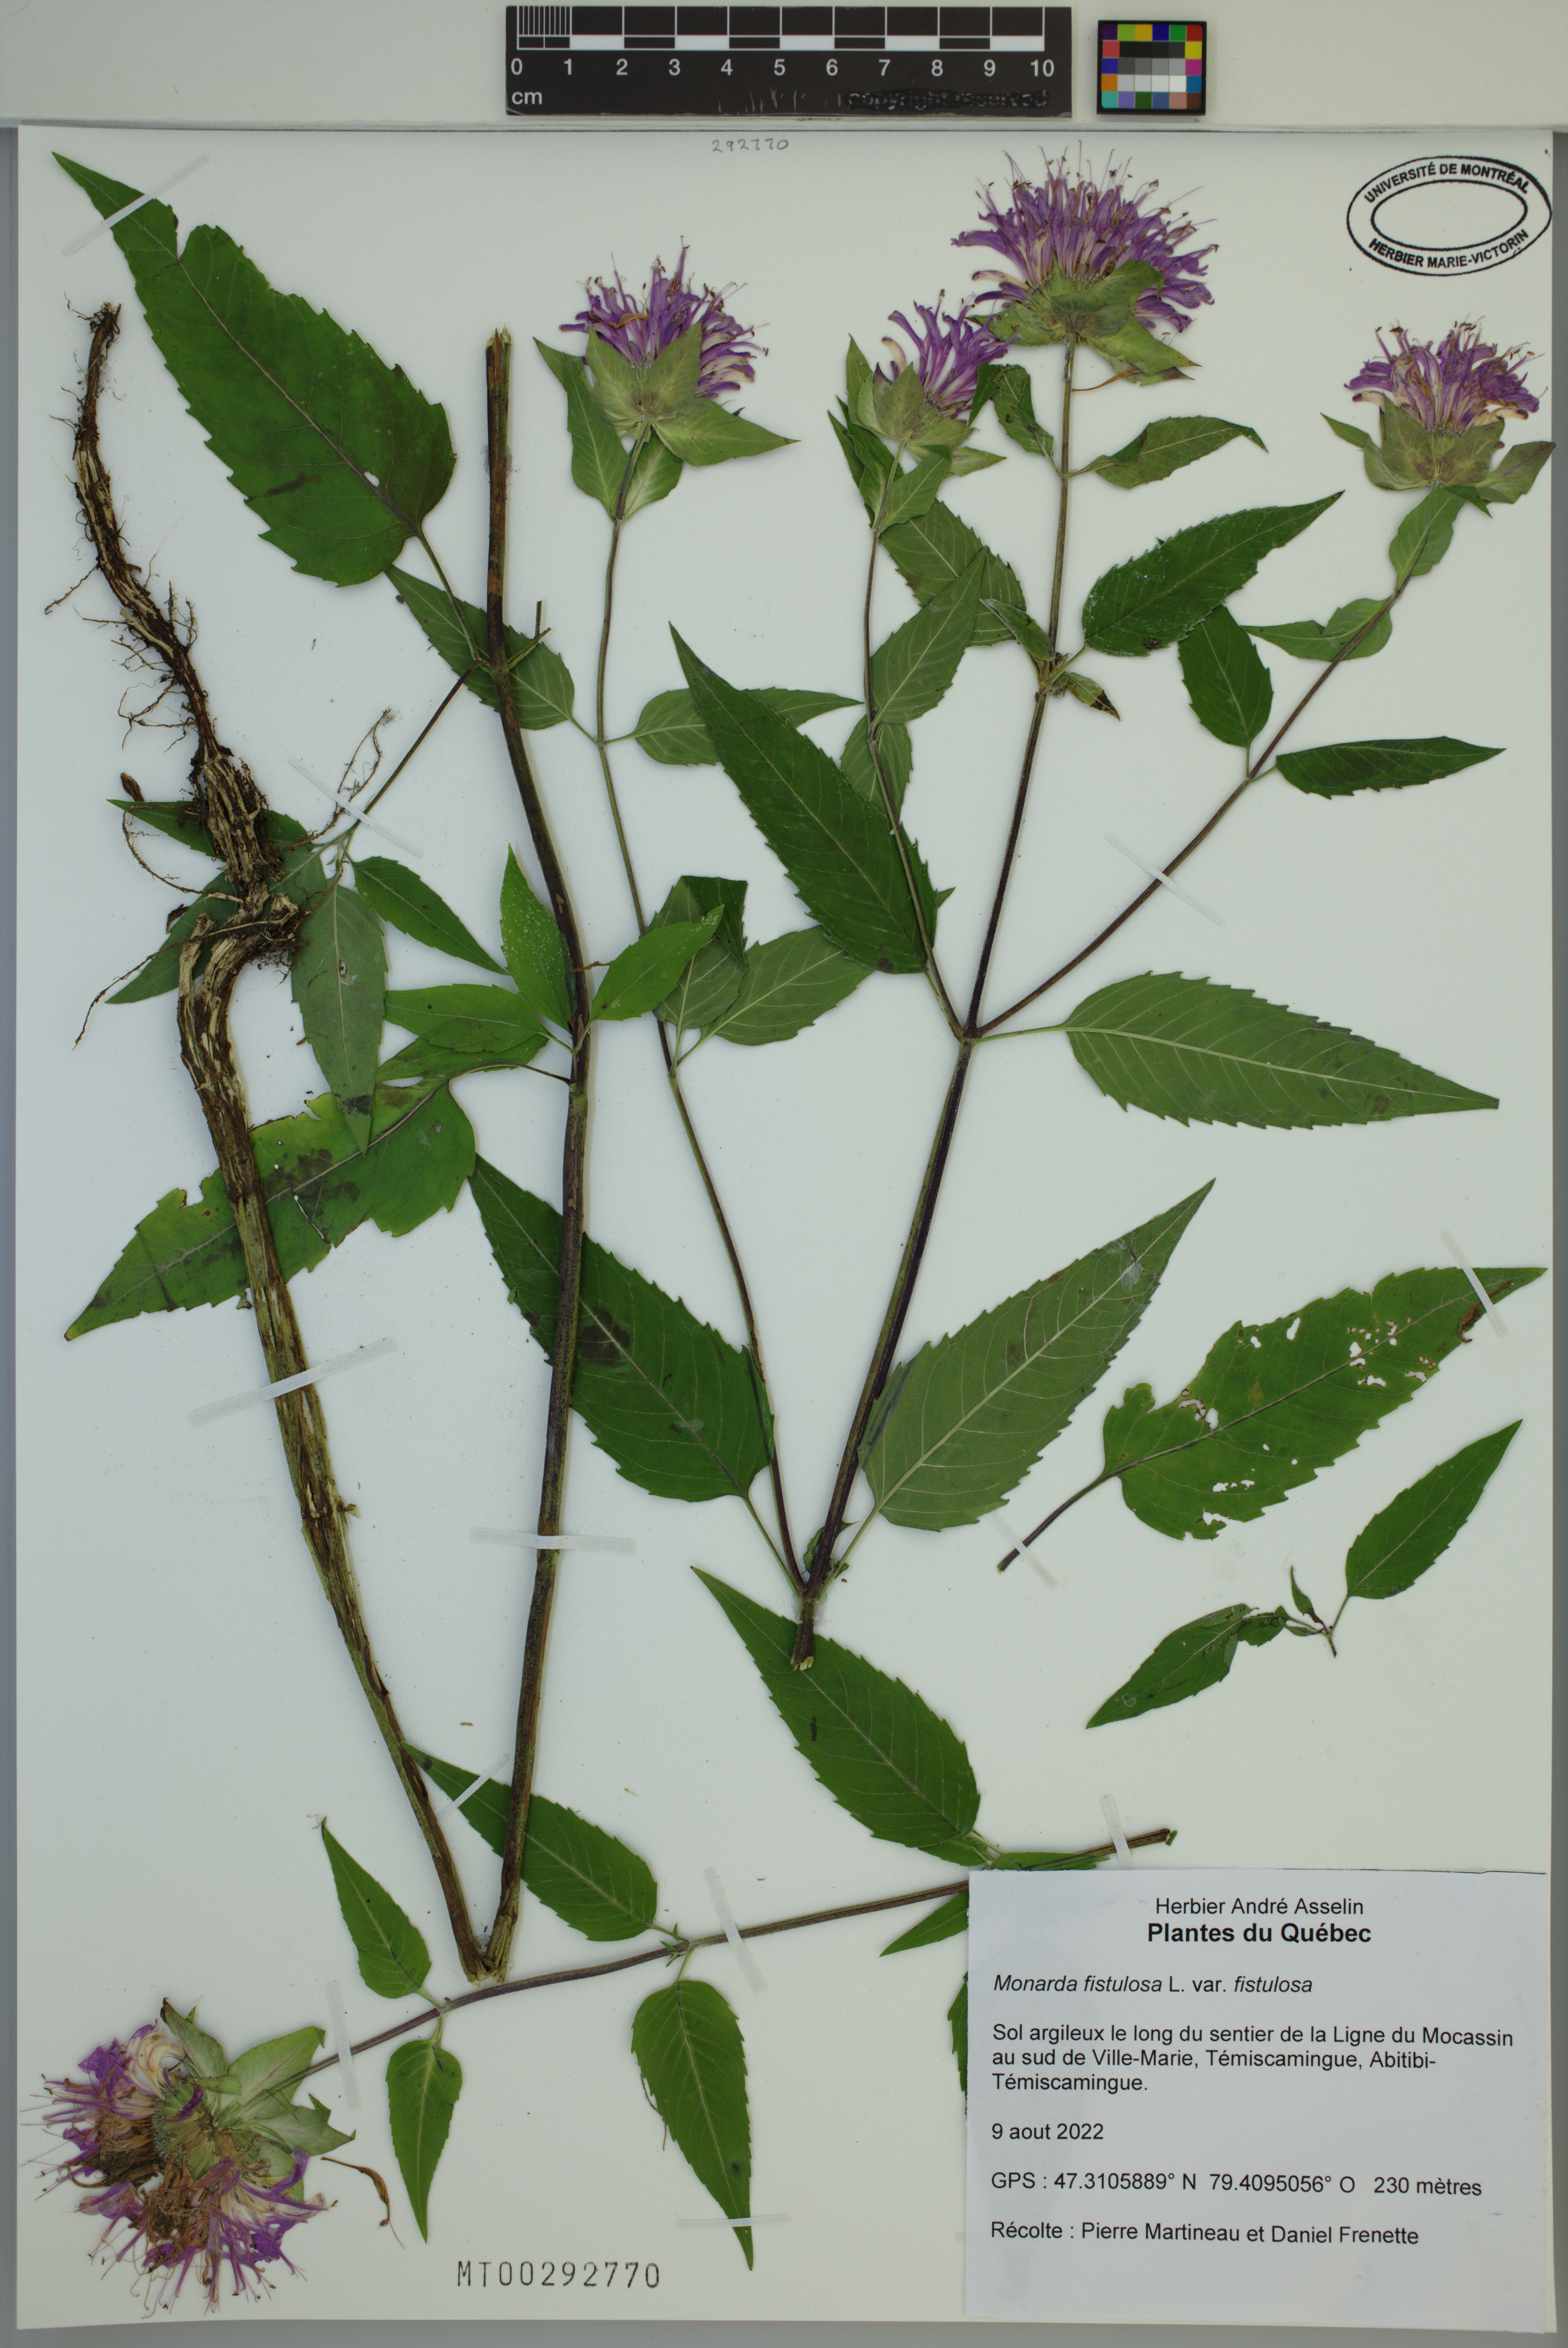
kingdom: Plantae
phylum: Tracheophyta
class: Magnoliopsida
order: Lamiales
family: Lamiaceae
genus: Monarda
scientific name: Monarda fistulosa
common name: Purple beebalm
